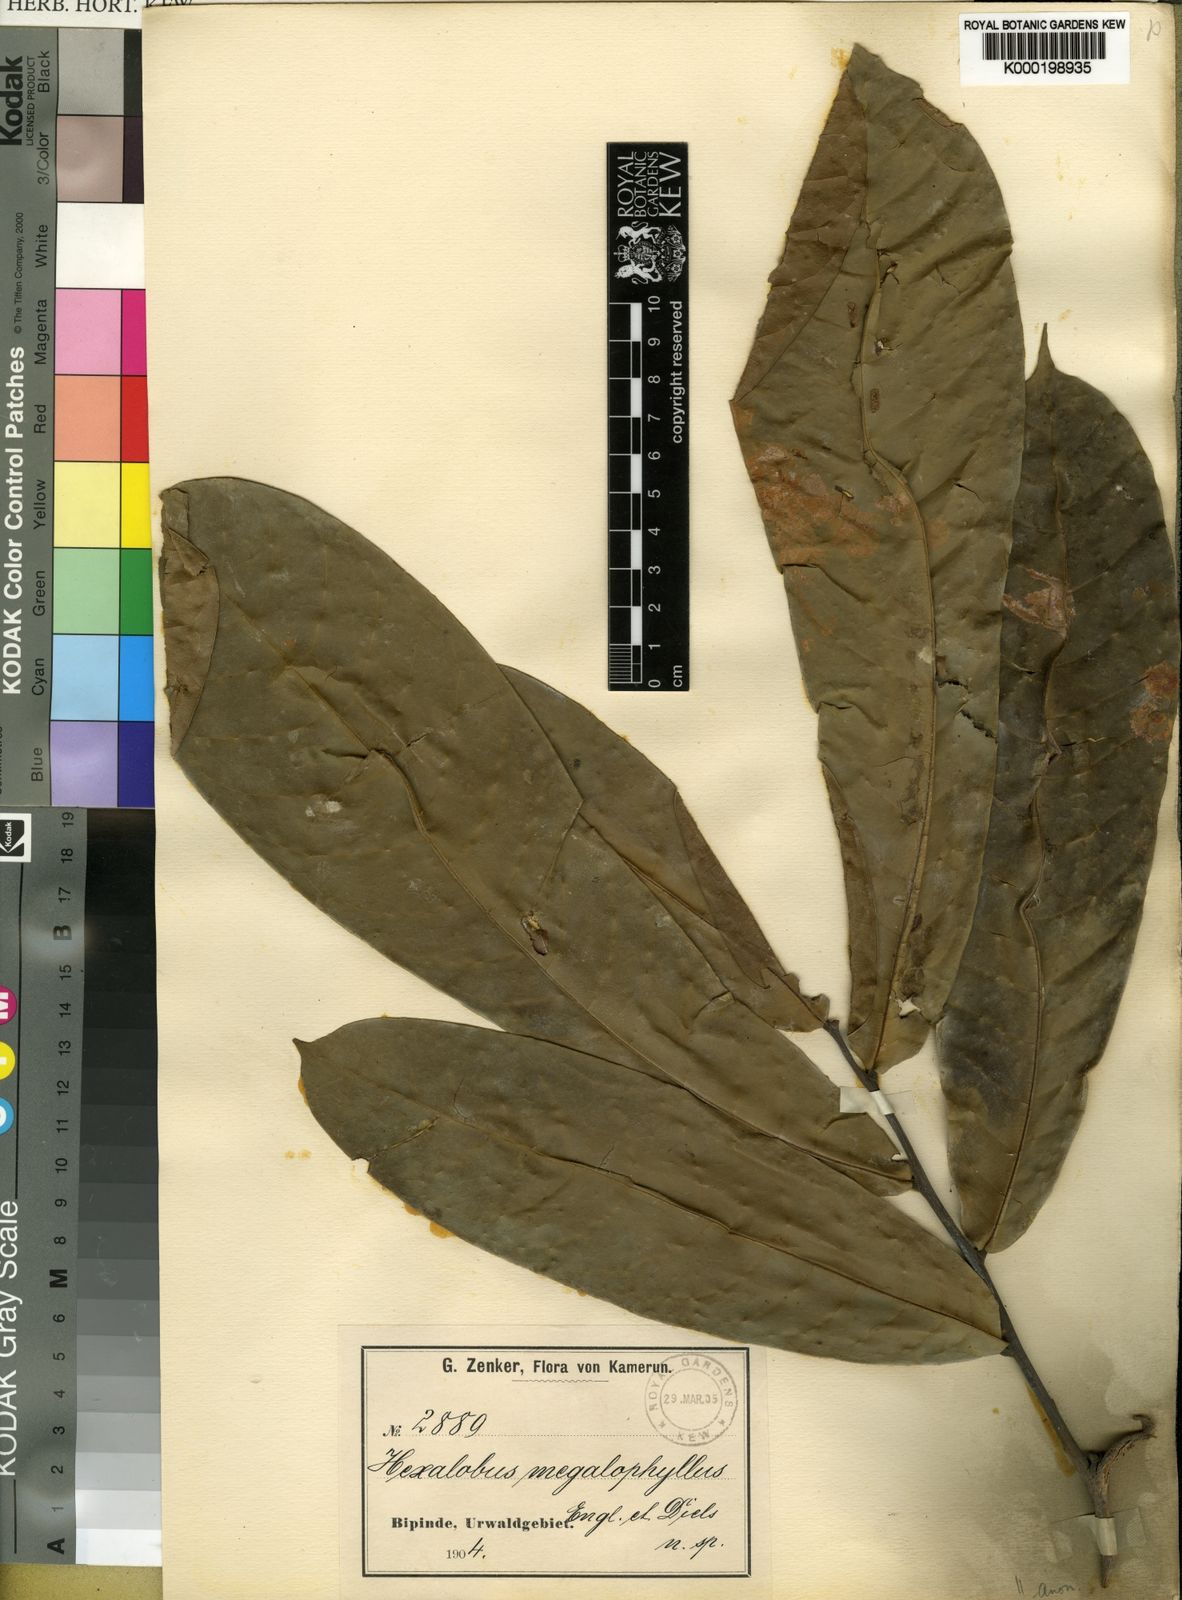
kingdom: Plantae
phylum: Tracheophyta
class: Magnoliopsida
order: Magnoliales
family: Annonaceae
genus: Hexalobus
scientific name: Hexalobus bussei
